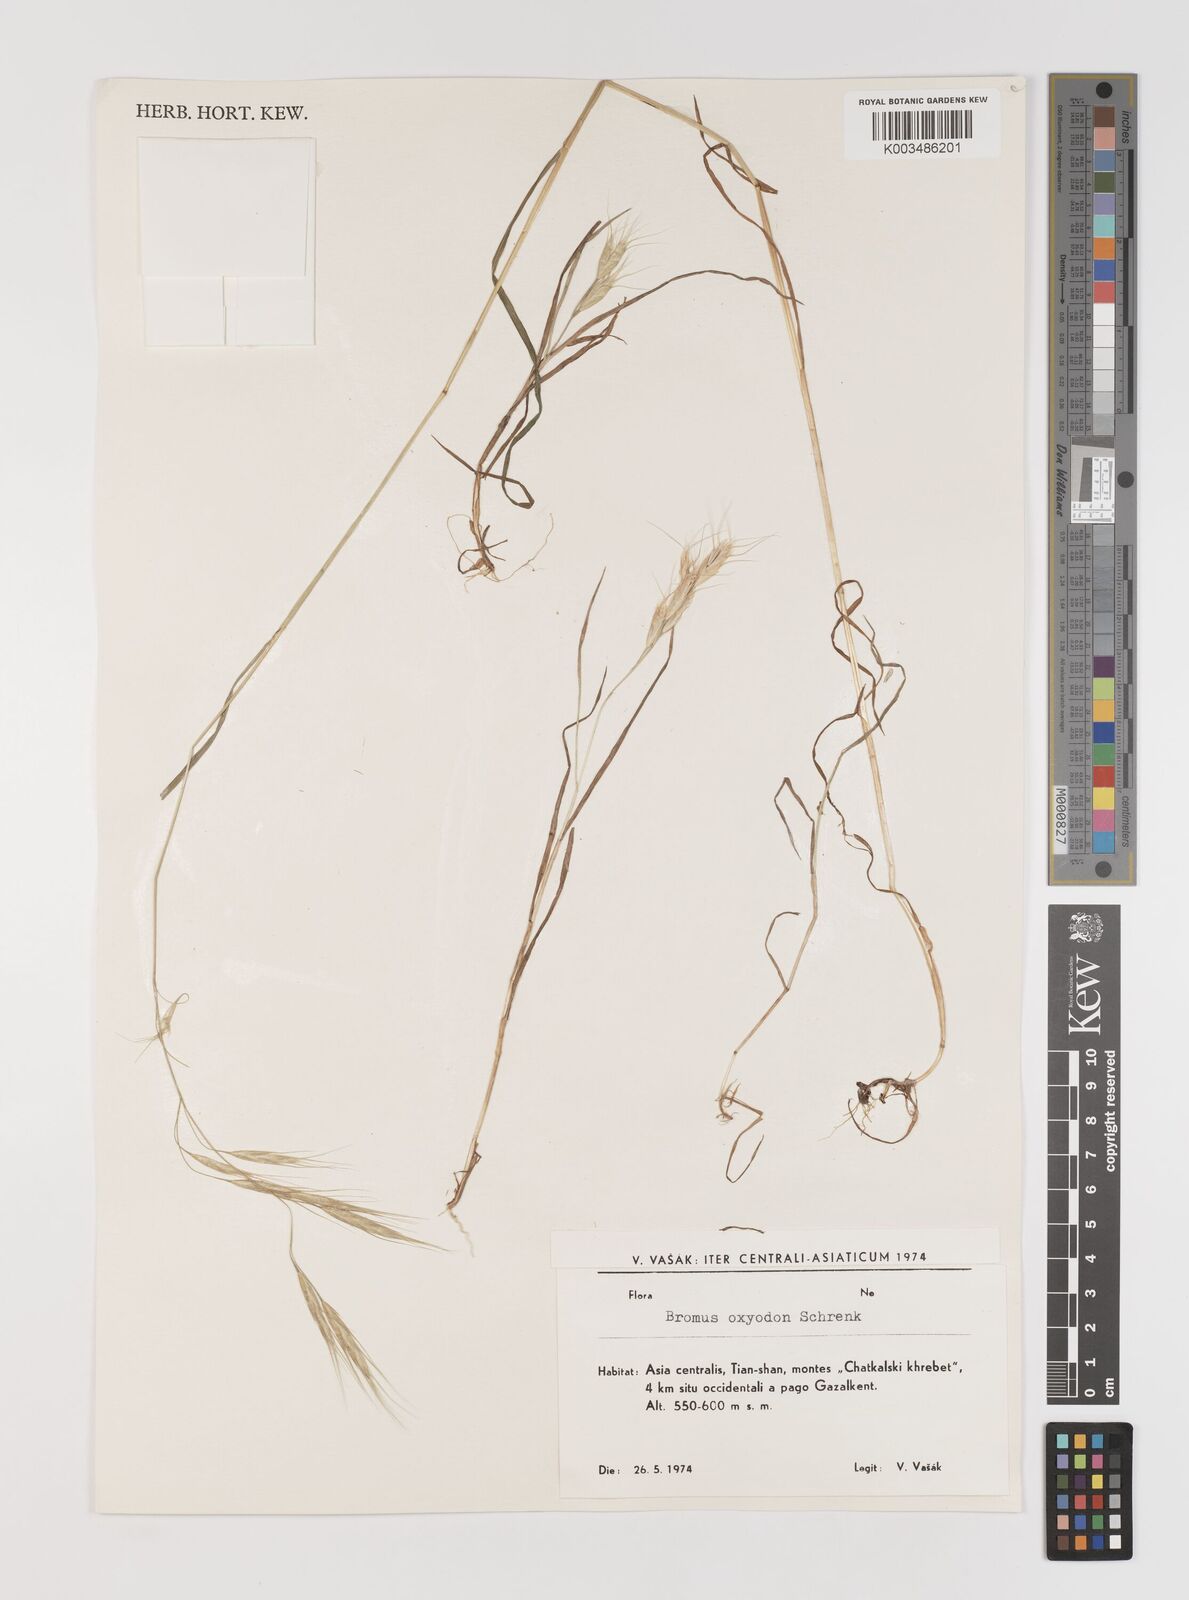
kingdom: Plantae
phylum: Tracheophyta
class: Liliopsida
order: Poales
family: Poaceae
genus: Bromus
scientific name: Bromus oxyodon
